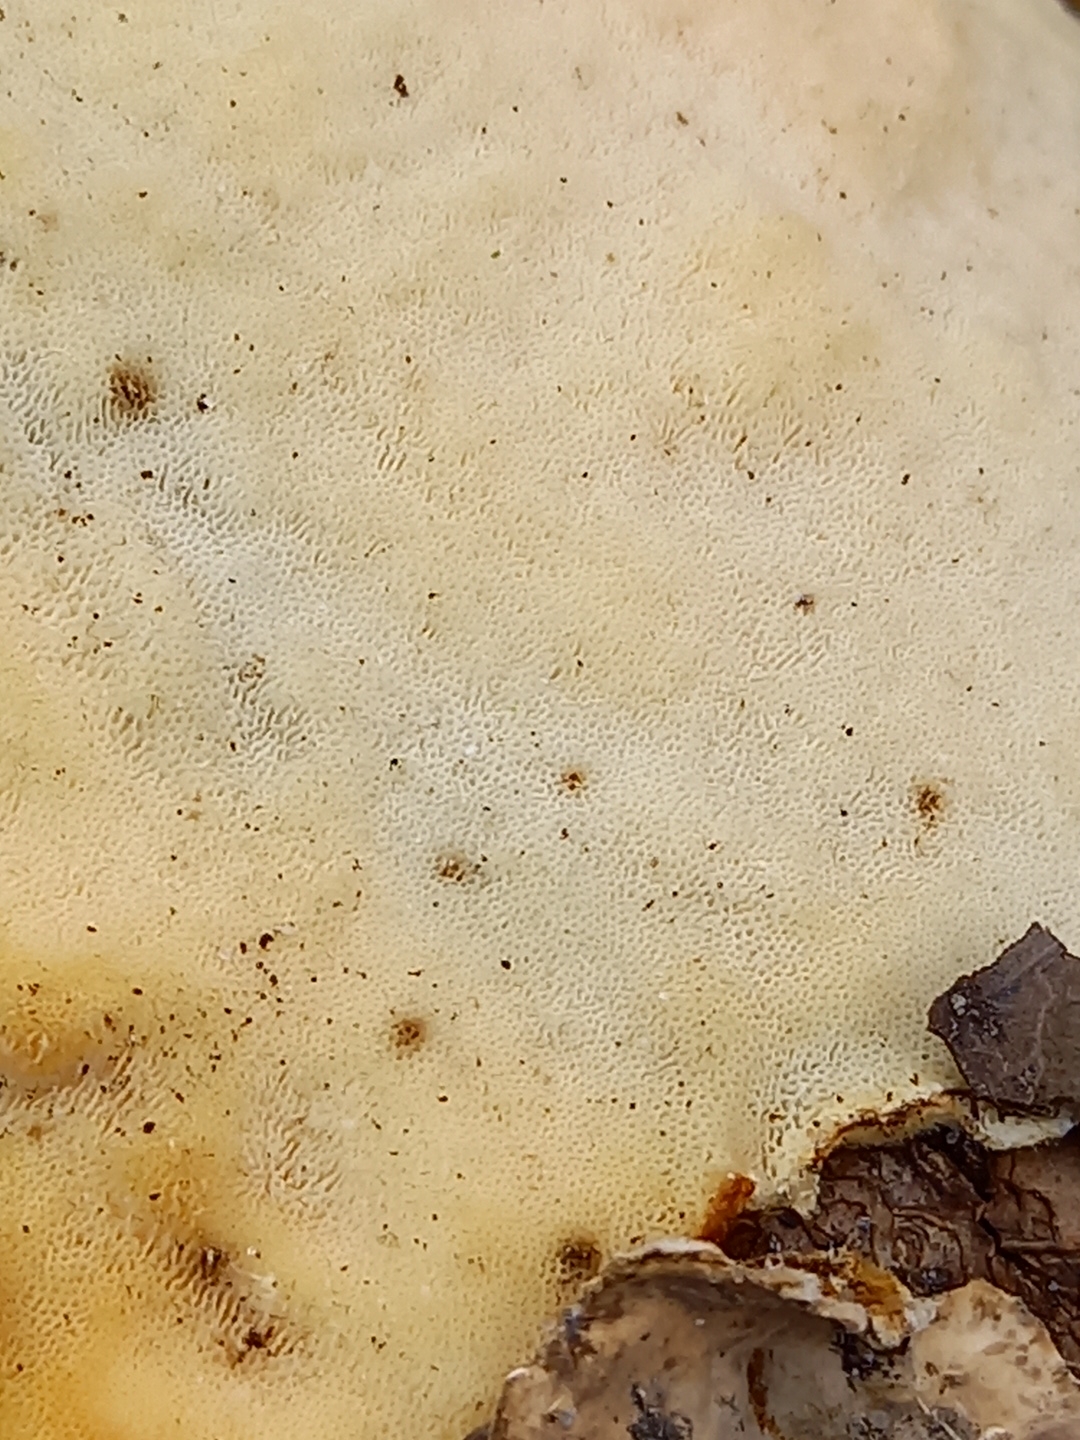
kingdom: Fungi
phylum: Basidiomycota
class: Agaricomycetes
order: Polyporales
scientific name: Polyporales
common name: poresvampordenen
